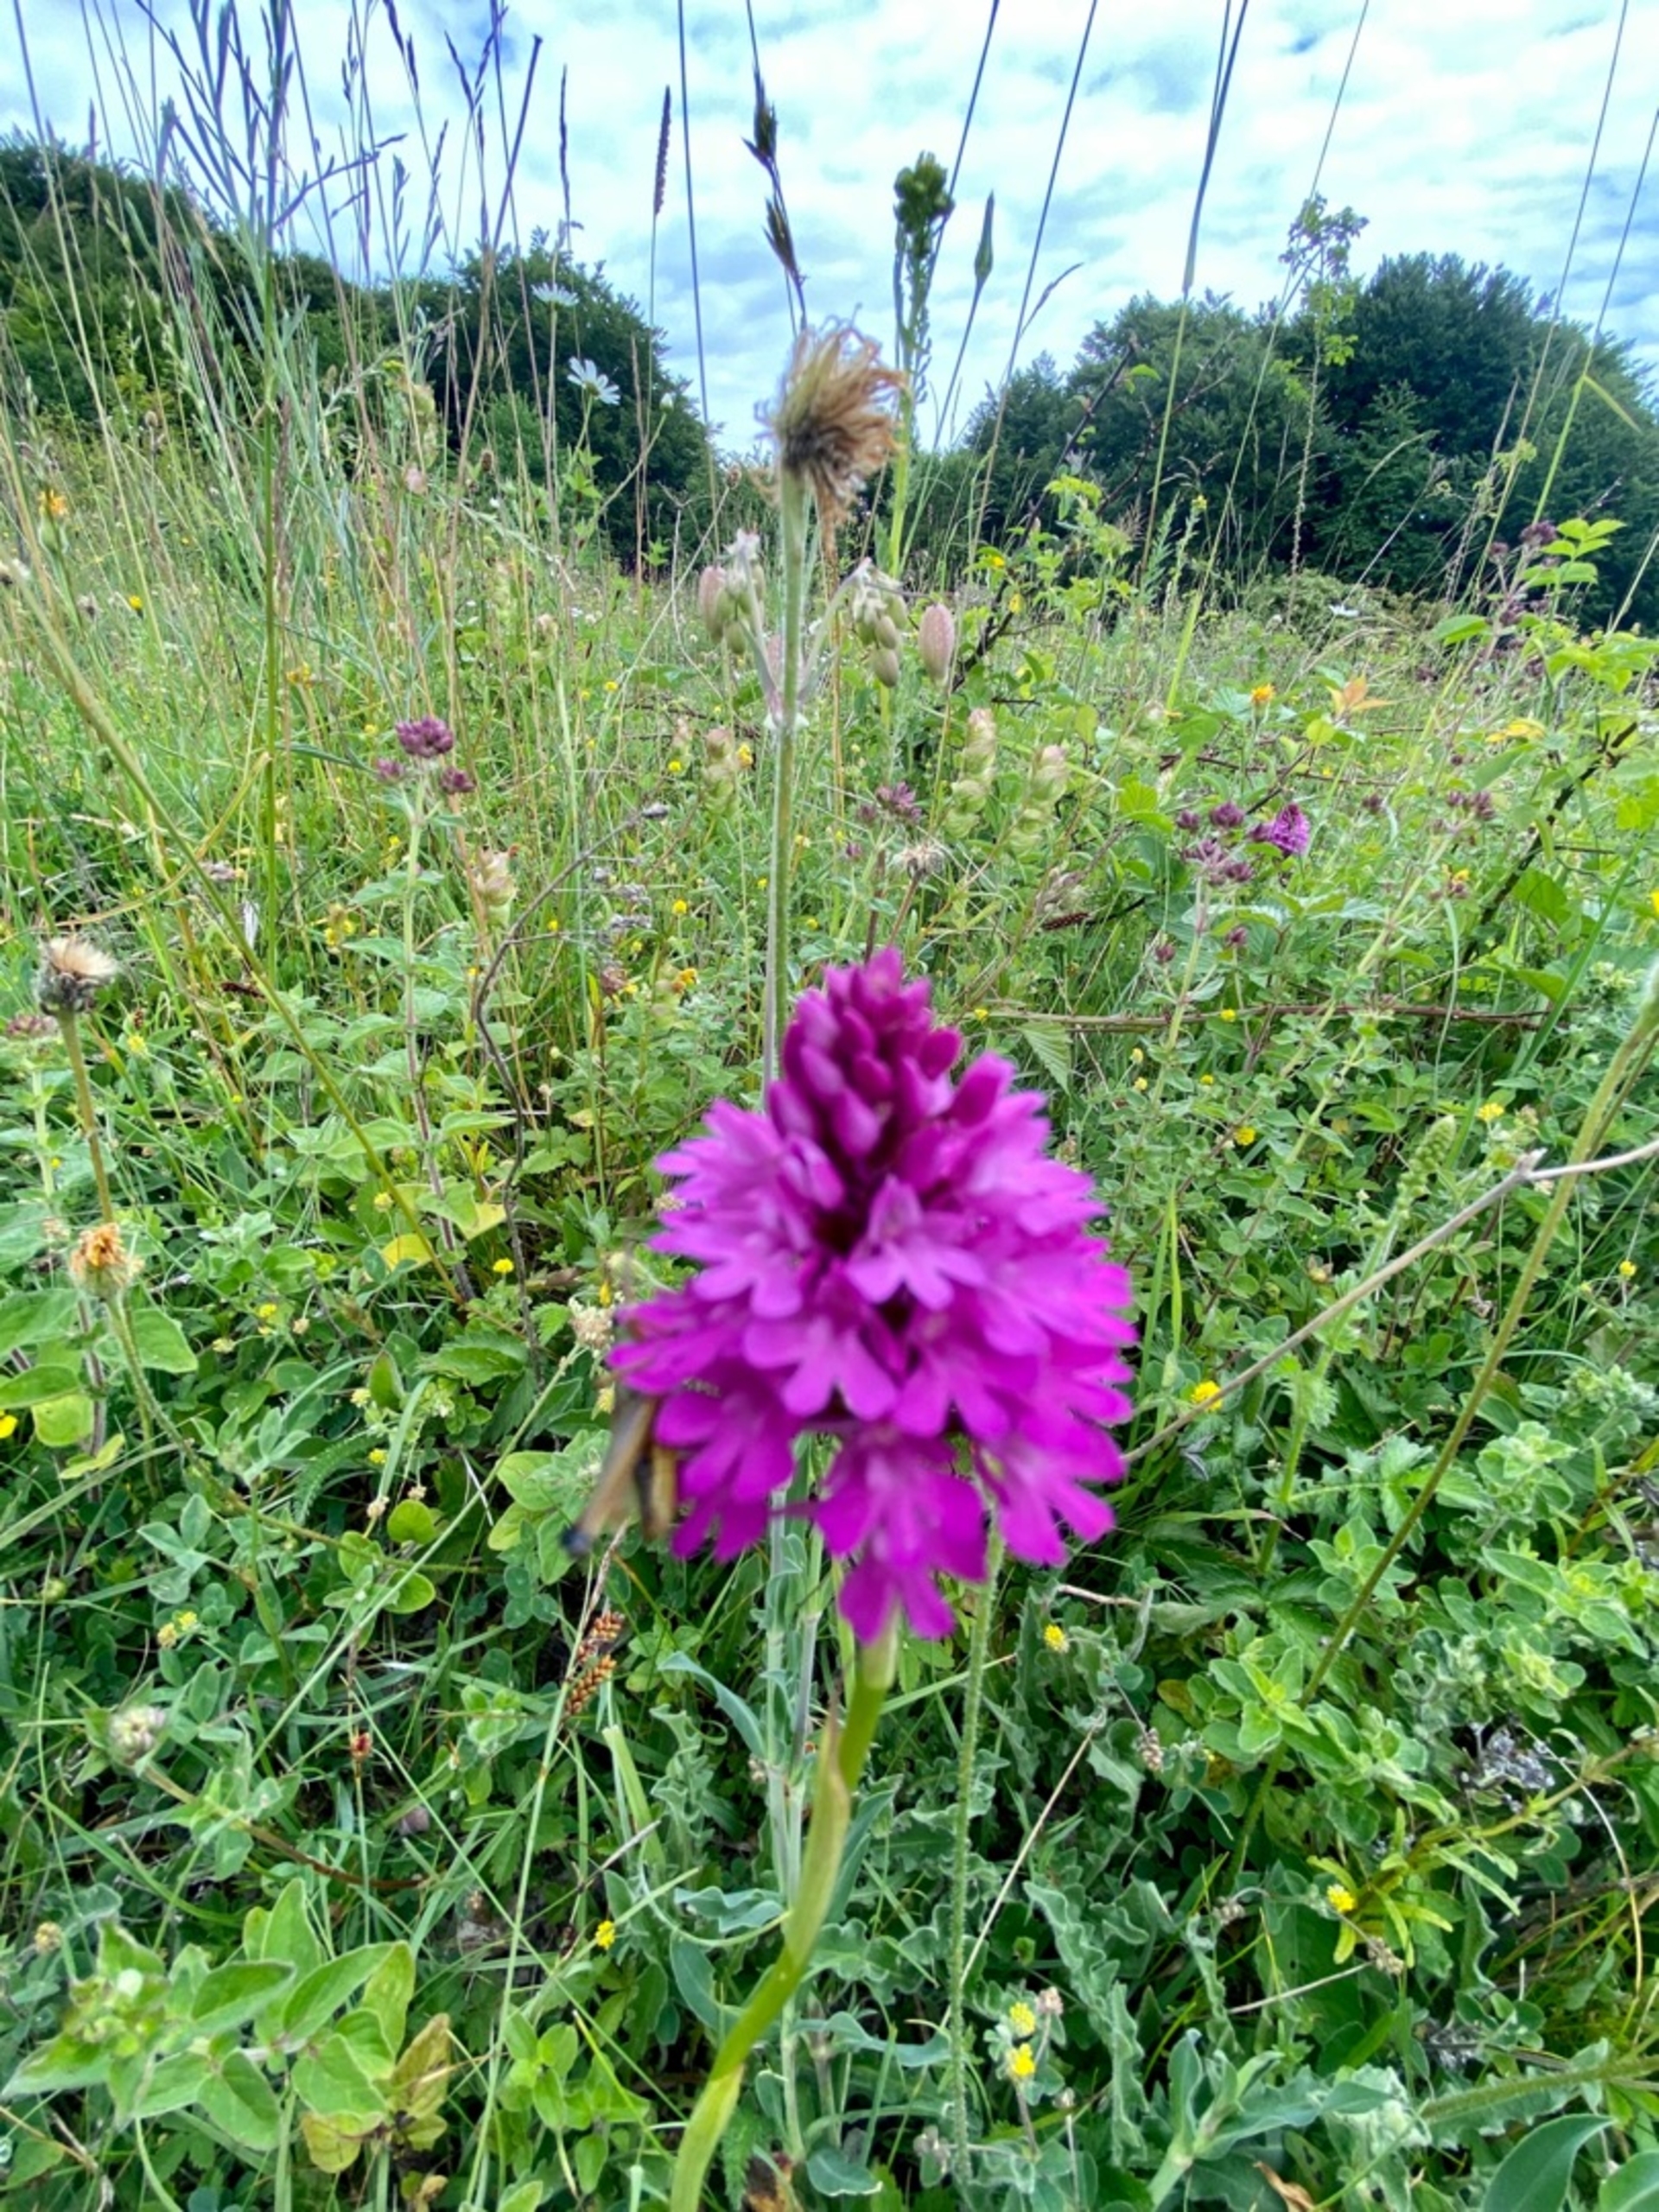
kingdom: Plantae
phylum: Tracheophyta
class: Liliopsida
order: Asparagales
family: Orchidaceae
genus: Anacamptis
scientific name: Anacamptis pyramidalis
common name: Horndrager
